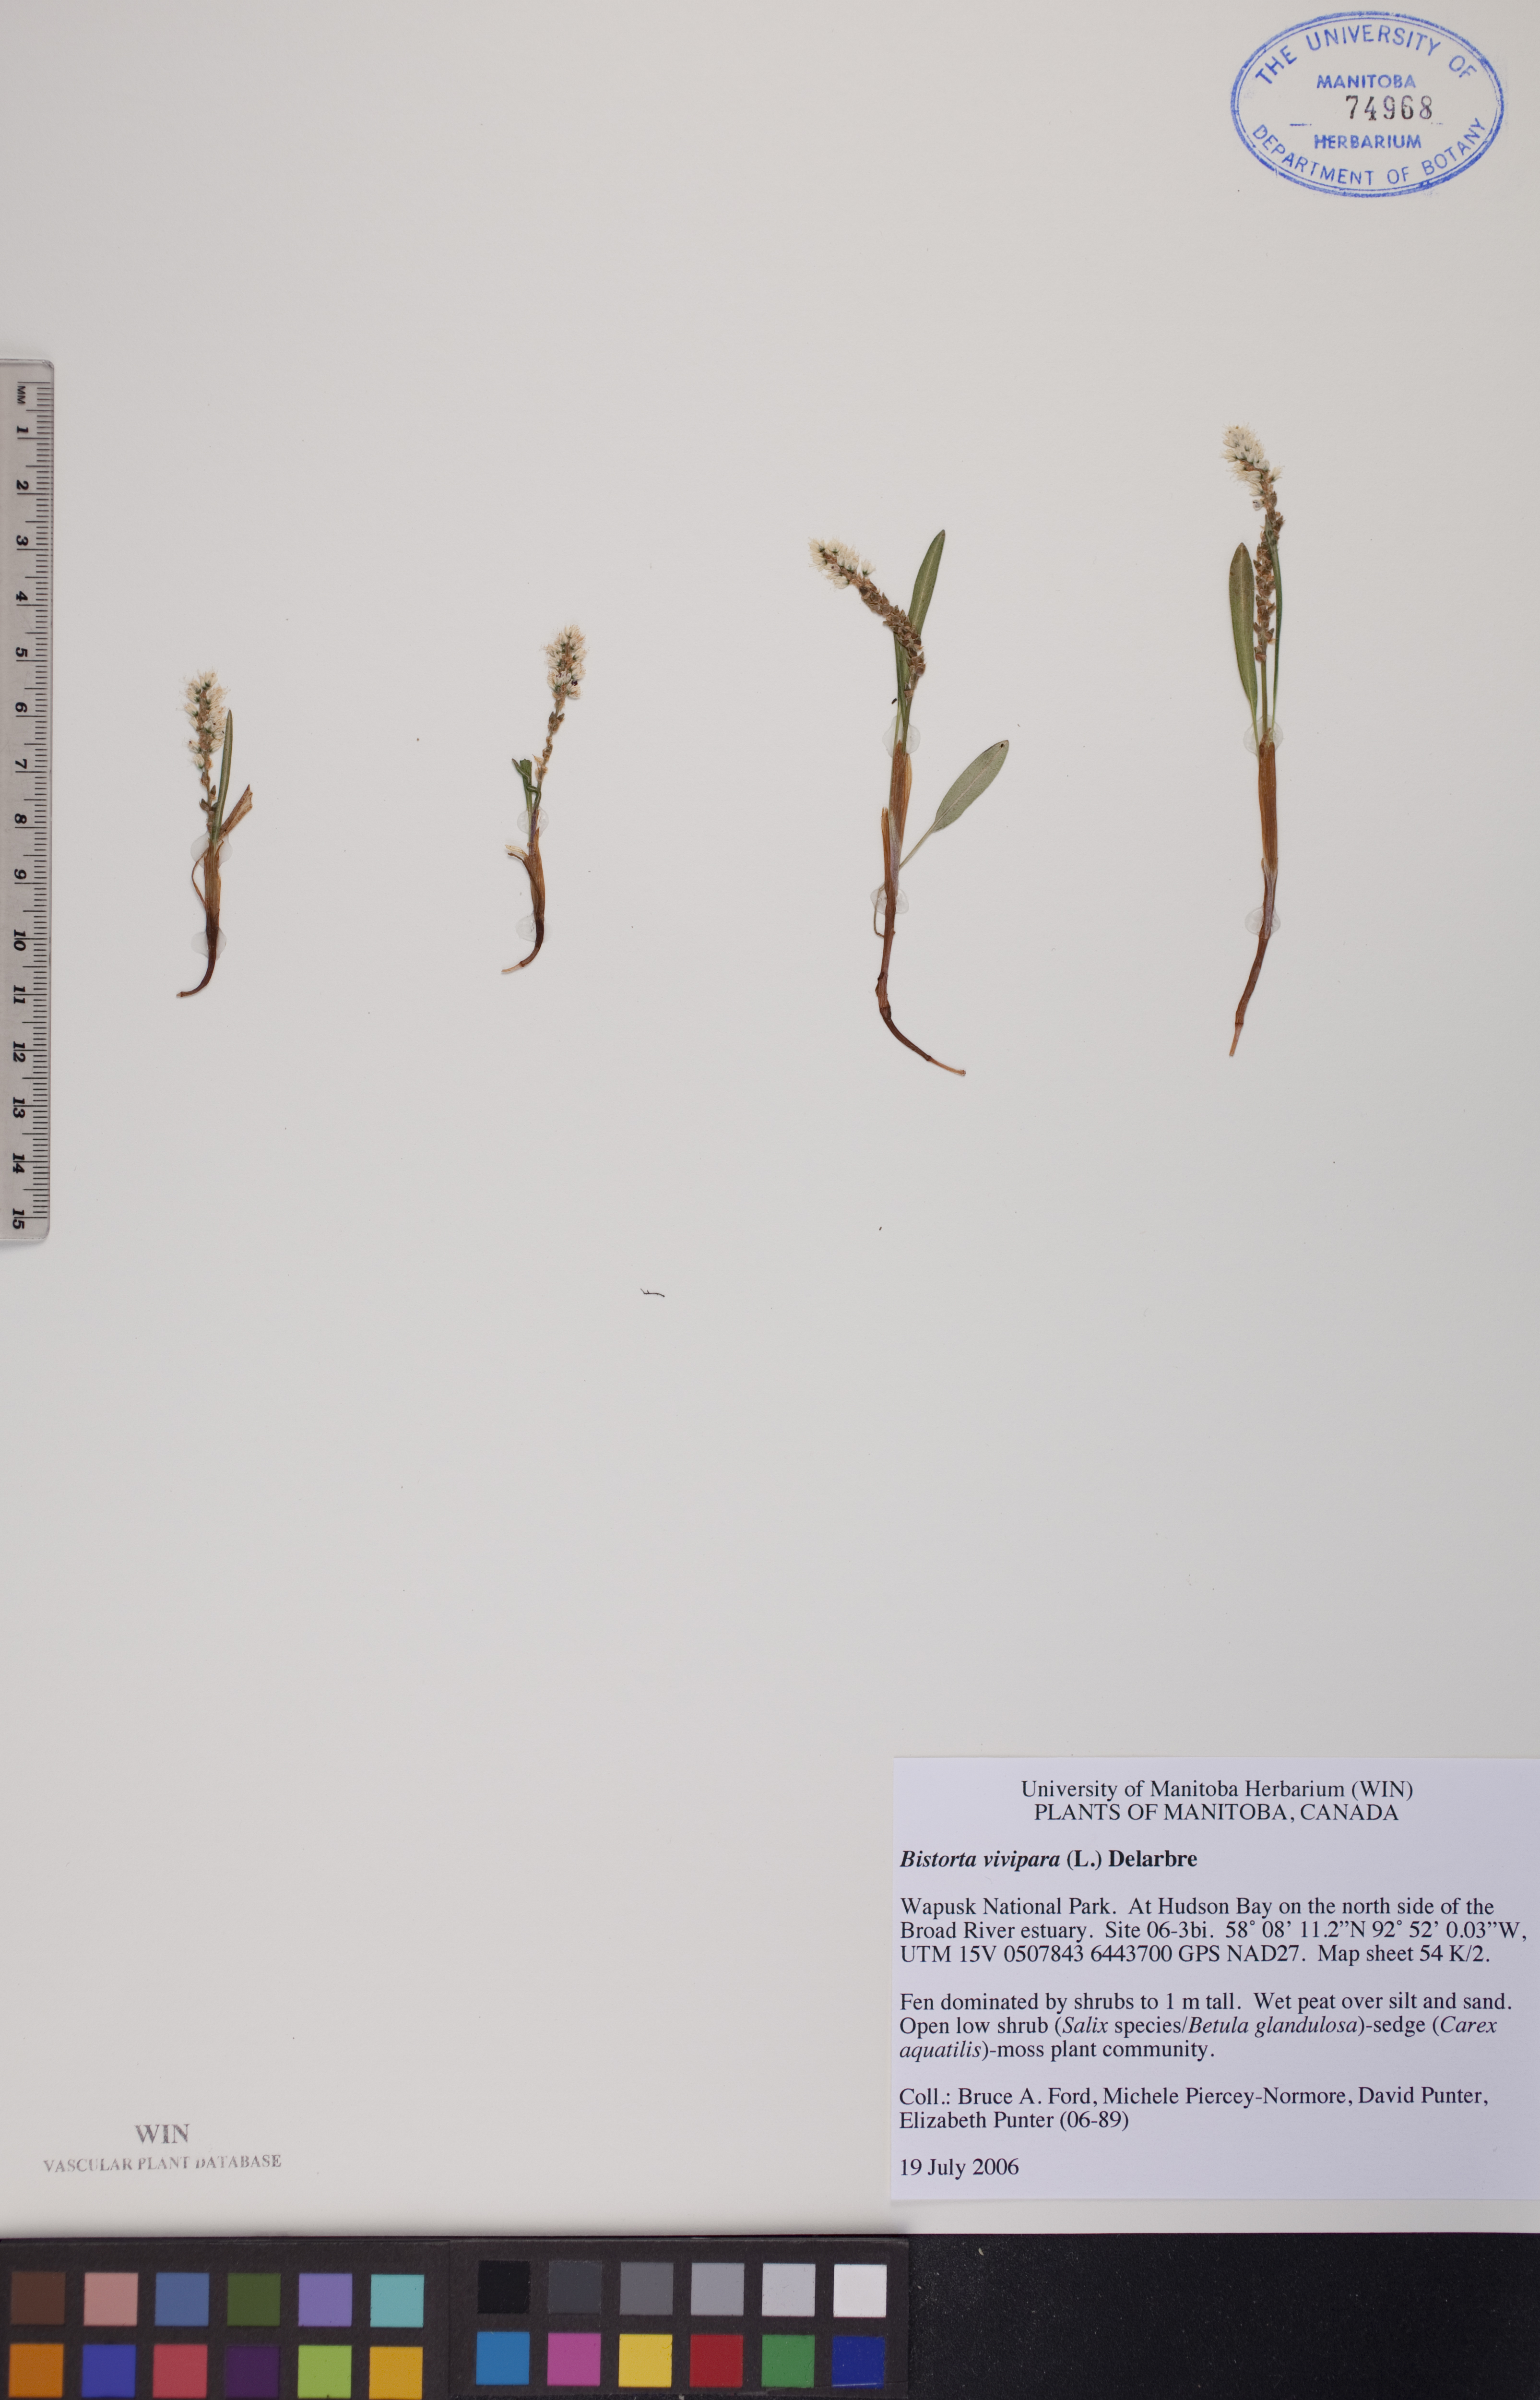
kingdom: Plantae
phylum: Tracheophyta
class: Magnoliopsida
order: Caryophyllales
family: Polygonaceae
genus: Bistorta
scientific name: Bistorta vivipara
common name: Alpine bistort
